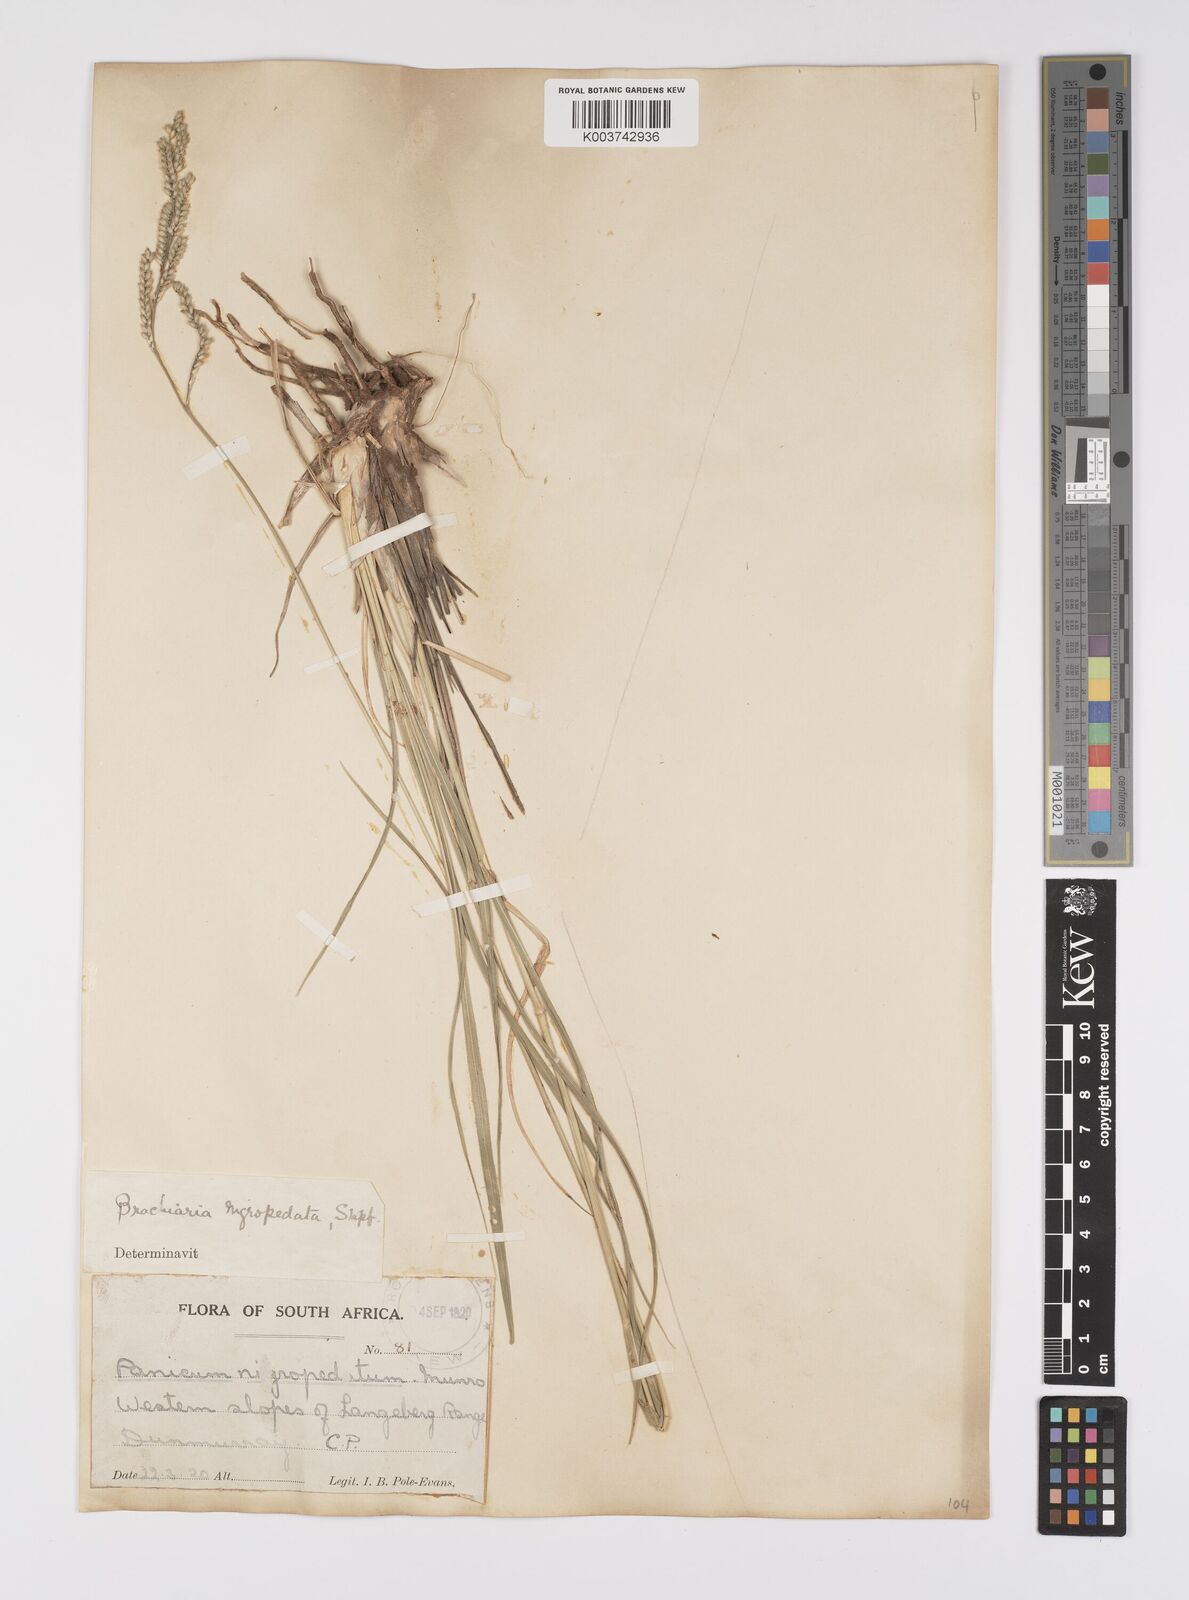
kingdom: Plantae
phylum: Tracheophyta
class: Liliopsida
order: Poales
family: Poaceae
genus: Urochloa
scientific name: Urochloa nigropedata
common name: Spotted signal grass
